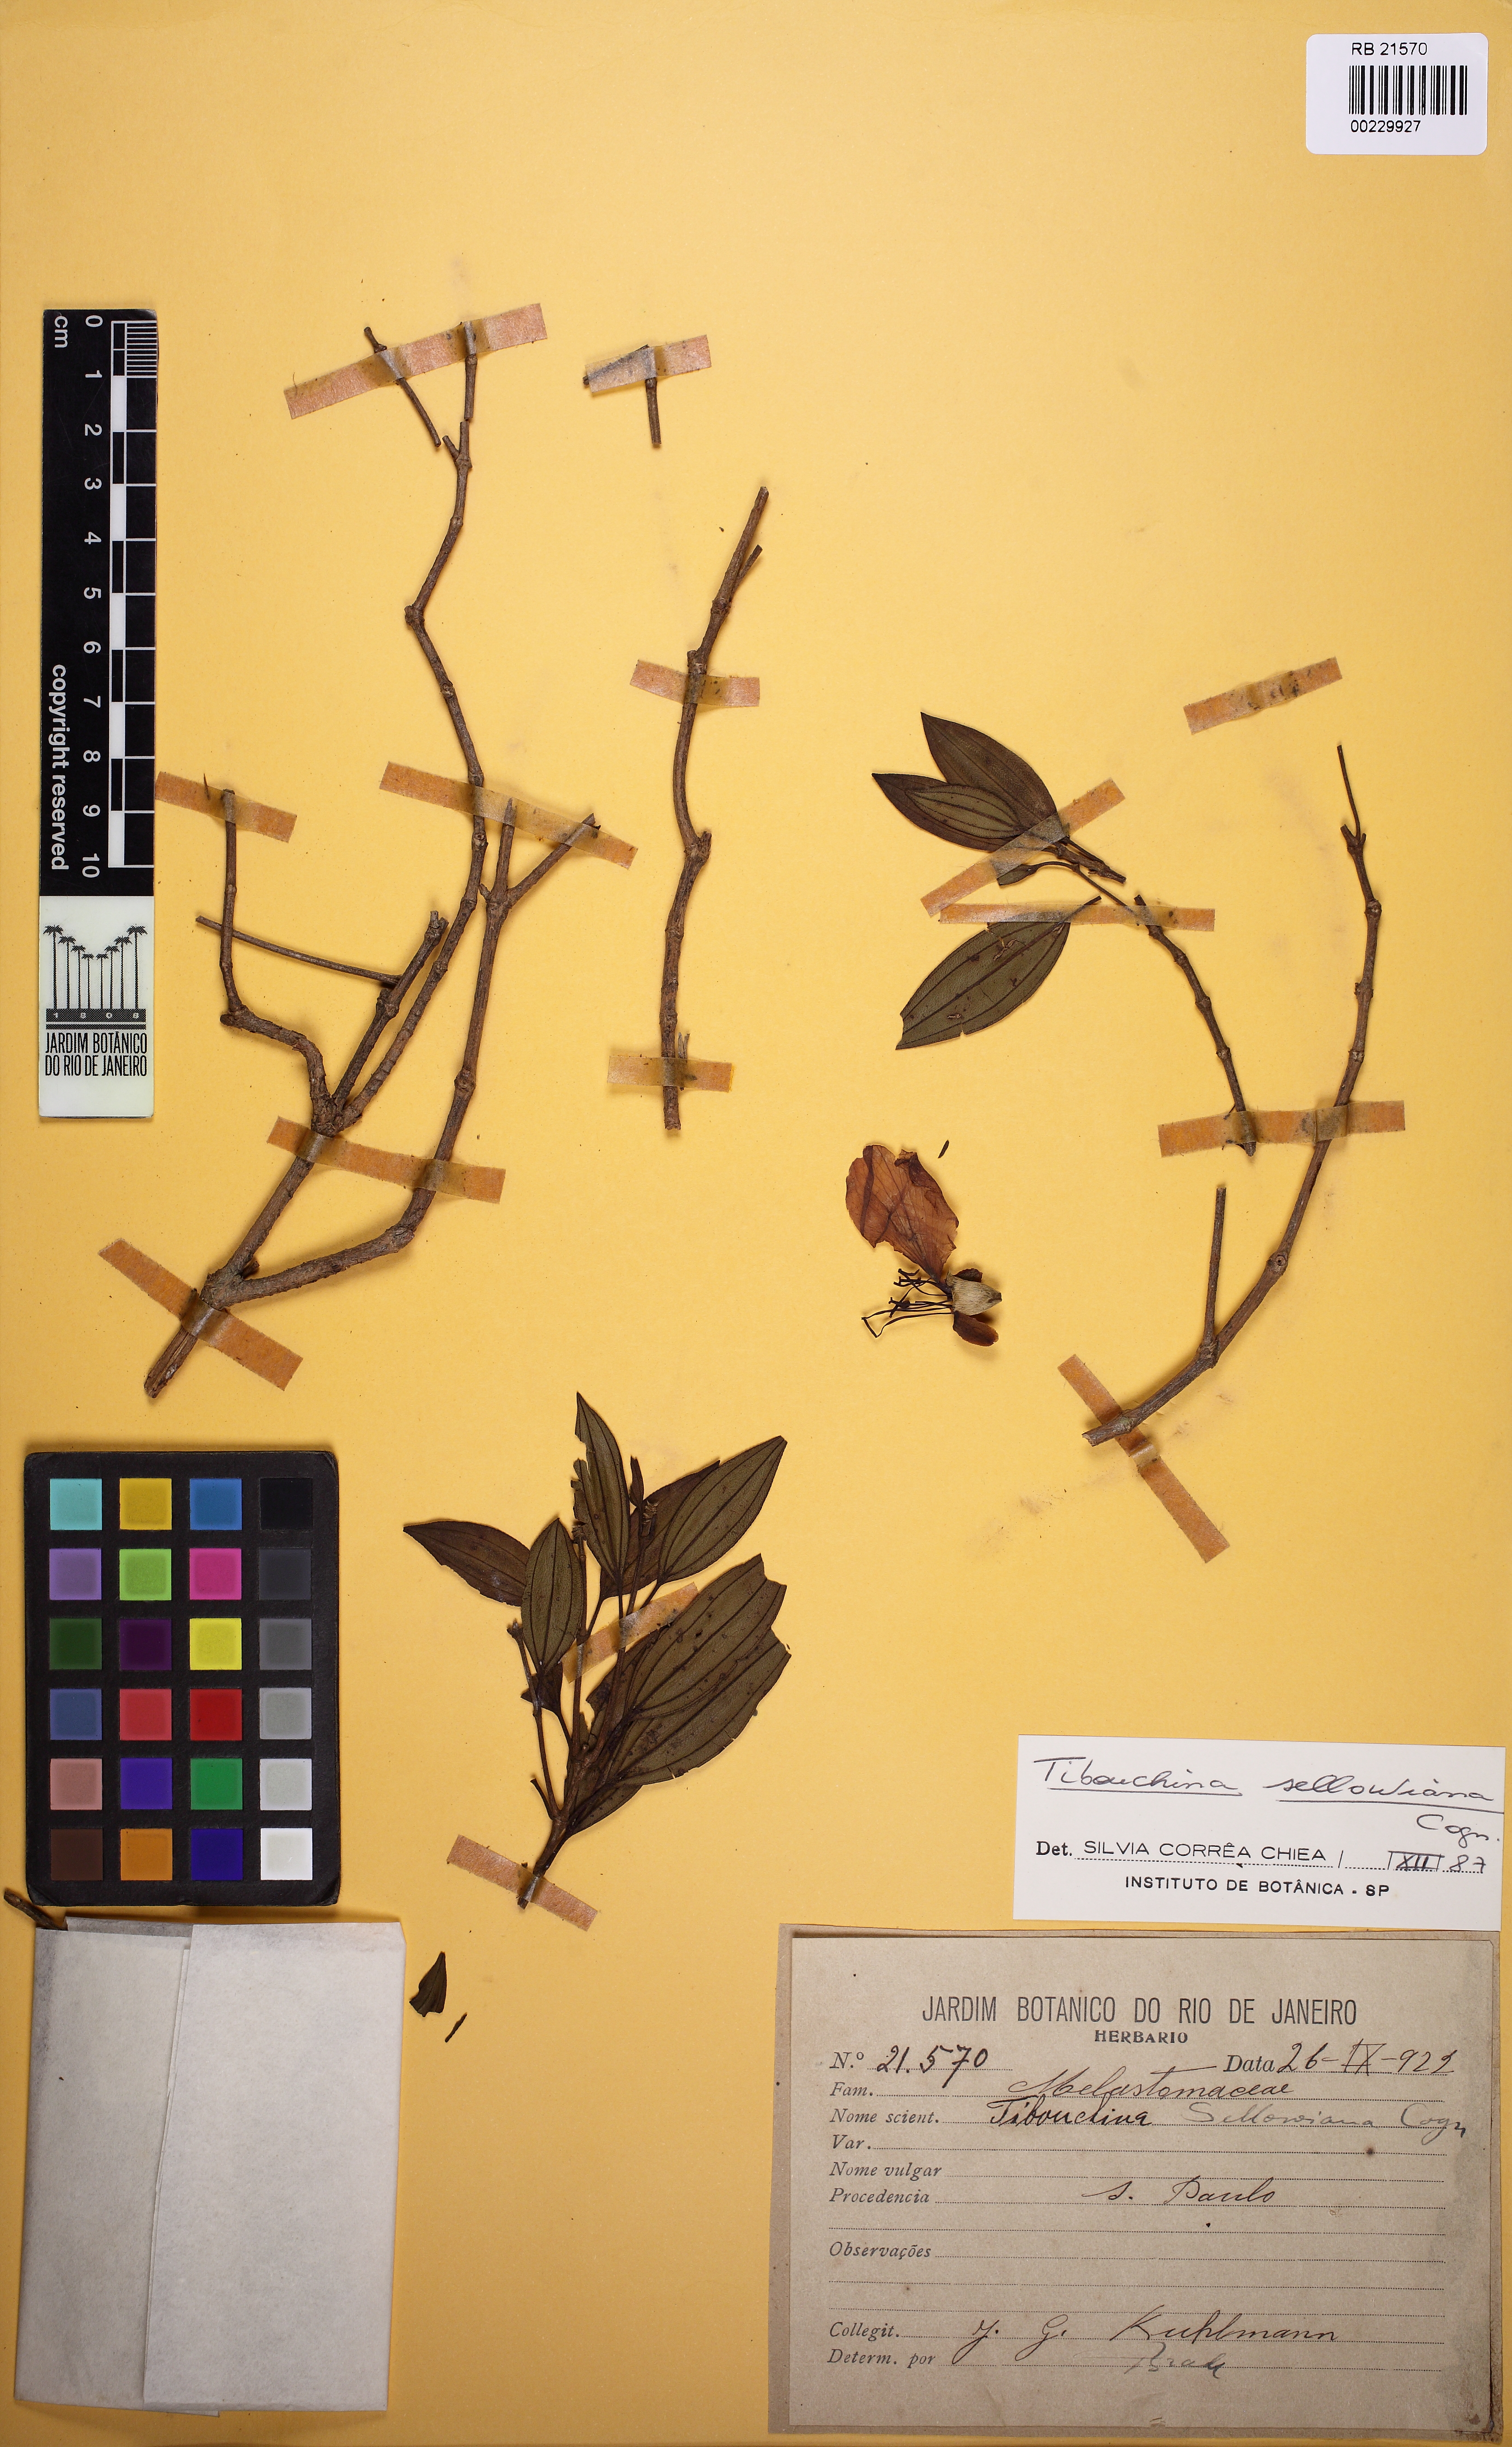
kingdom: Plantae
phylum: Tracheophyta
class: Magnoliopsida
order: Myrtales
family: Melastomataceae
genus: Pleroma
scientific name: Pleroma ochypetalum
